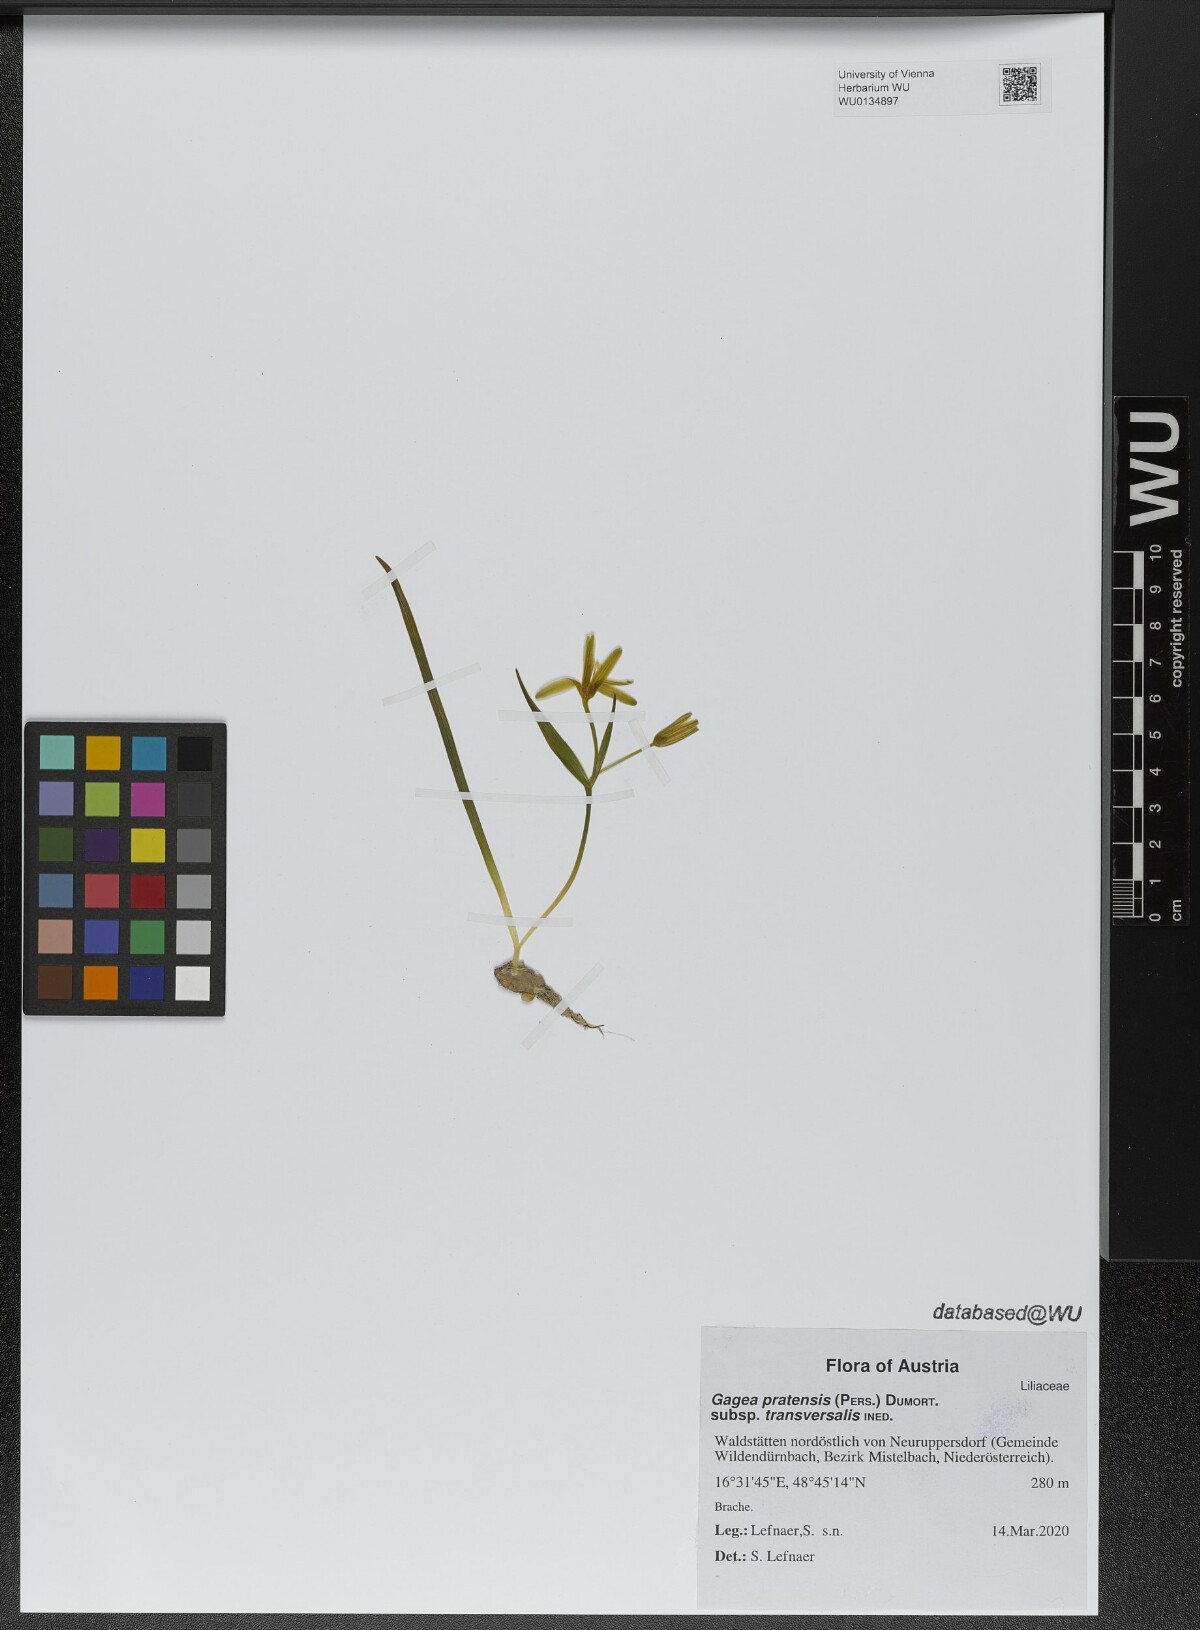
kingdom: Plantae
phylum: Tracheophyta
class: Liliopsida
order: Liliales
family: Liliaceae
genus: Gagea
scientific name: Gagea pratensis
